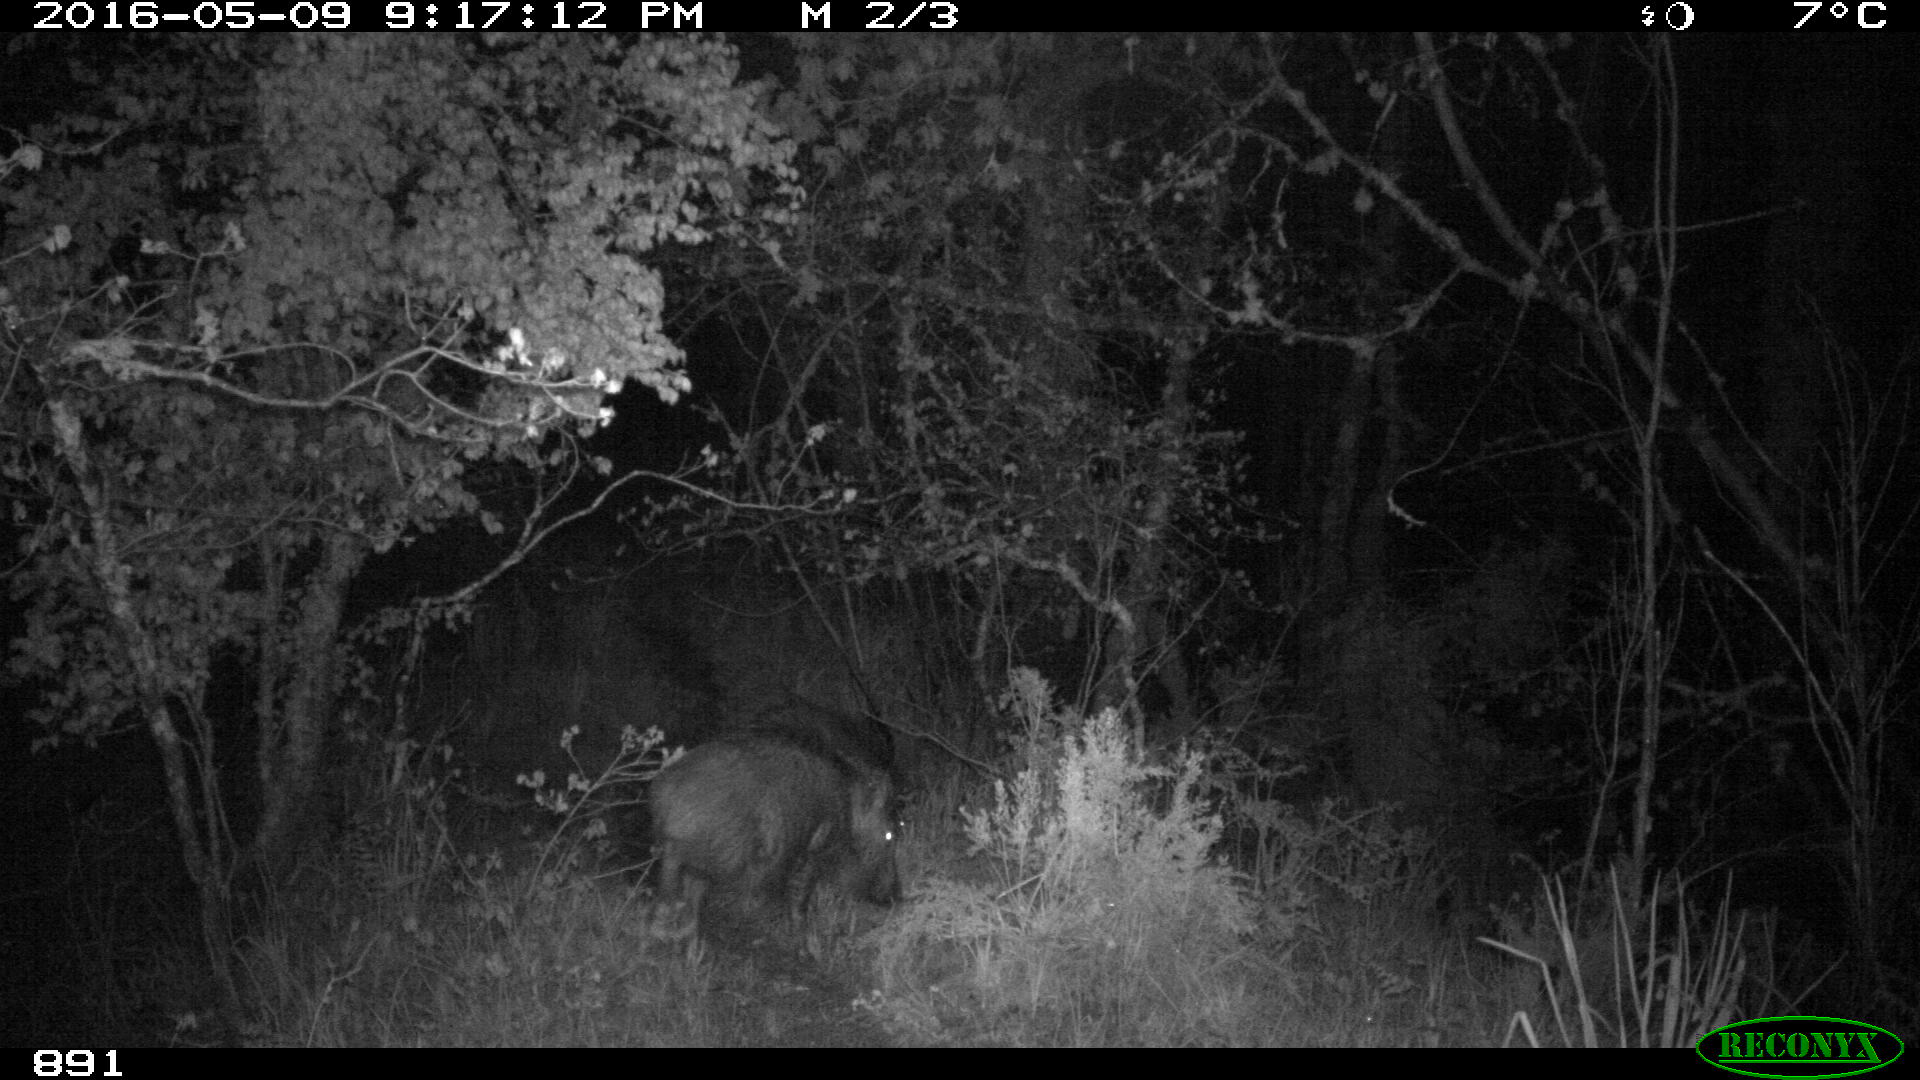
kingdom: Animalia
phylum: Chordata
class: Mammalia
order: Artiodactyla
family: Suidae
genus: Sus
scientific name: Sus scrofa
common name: Wild boar
